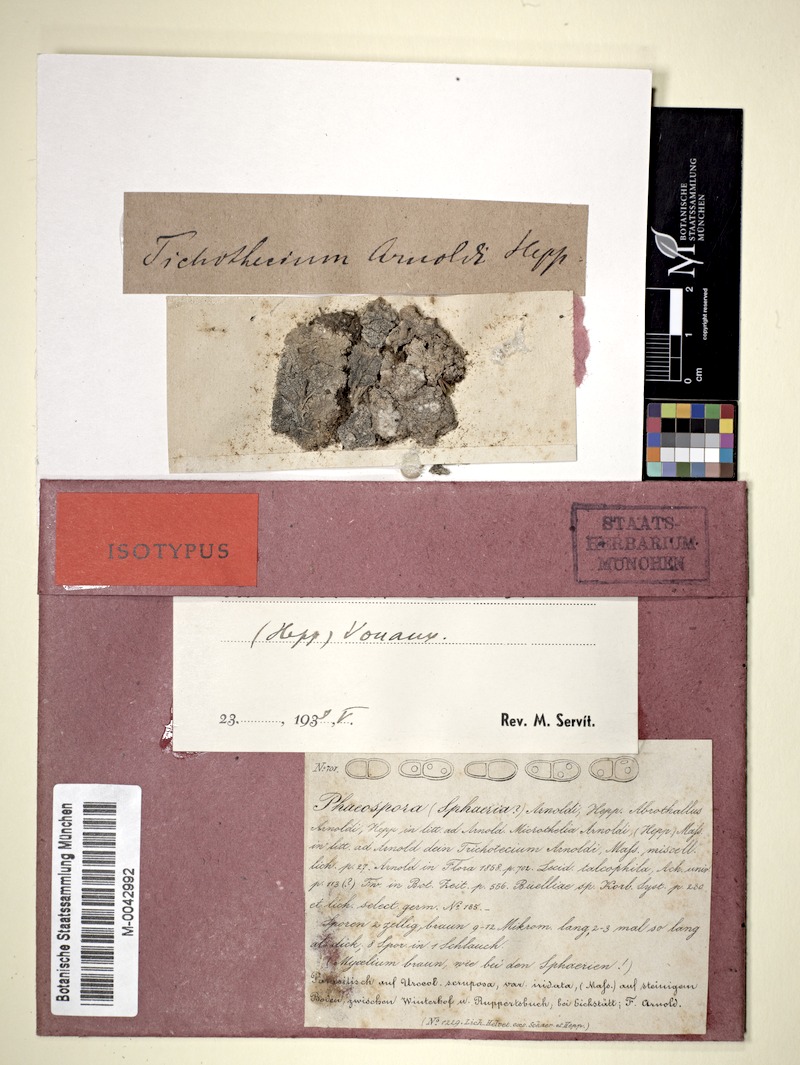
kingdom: Fungi
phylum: Ascomycota
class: Dothideomycetes
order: Mycosphaerellales
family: Mycosphaerellaceae
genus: Sphaerellothecium
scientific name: Sphaerellothecium arnoldii
